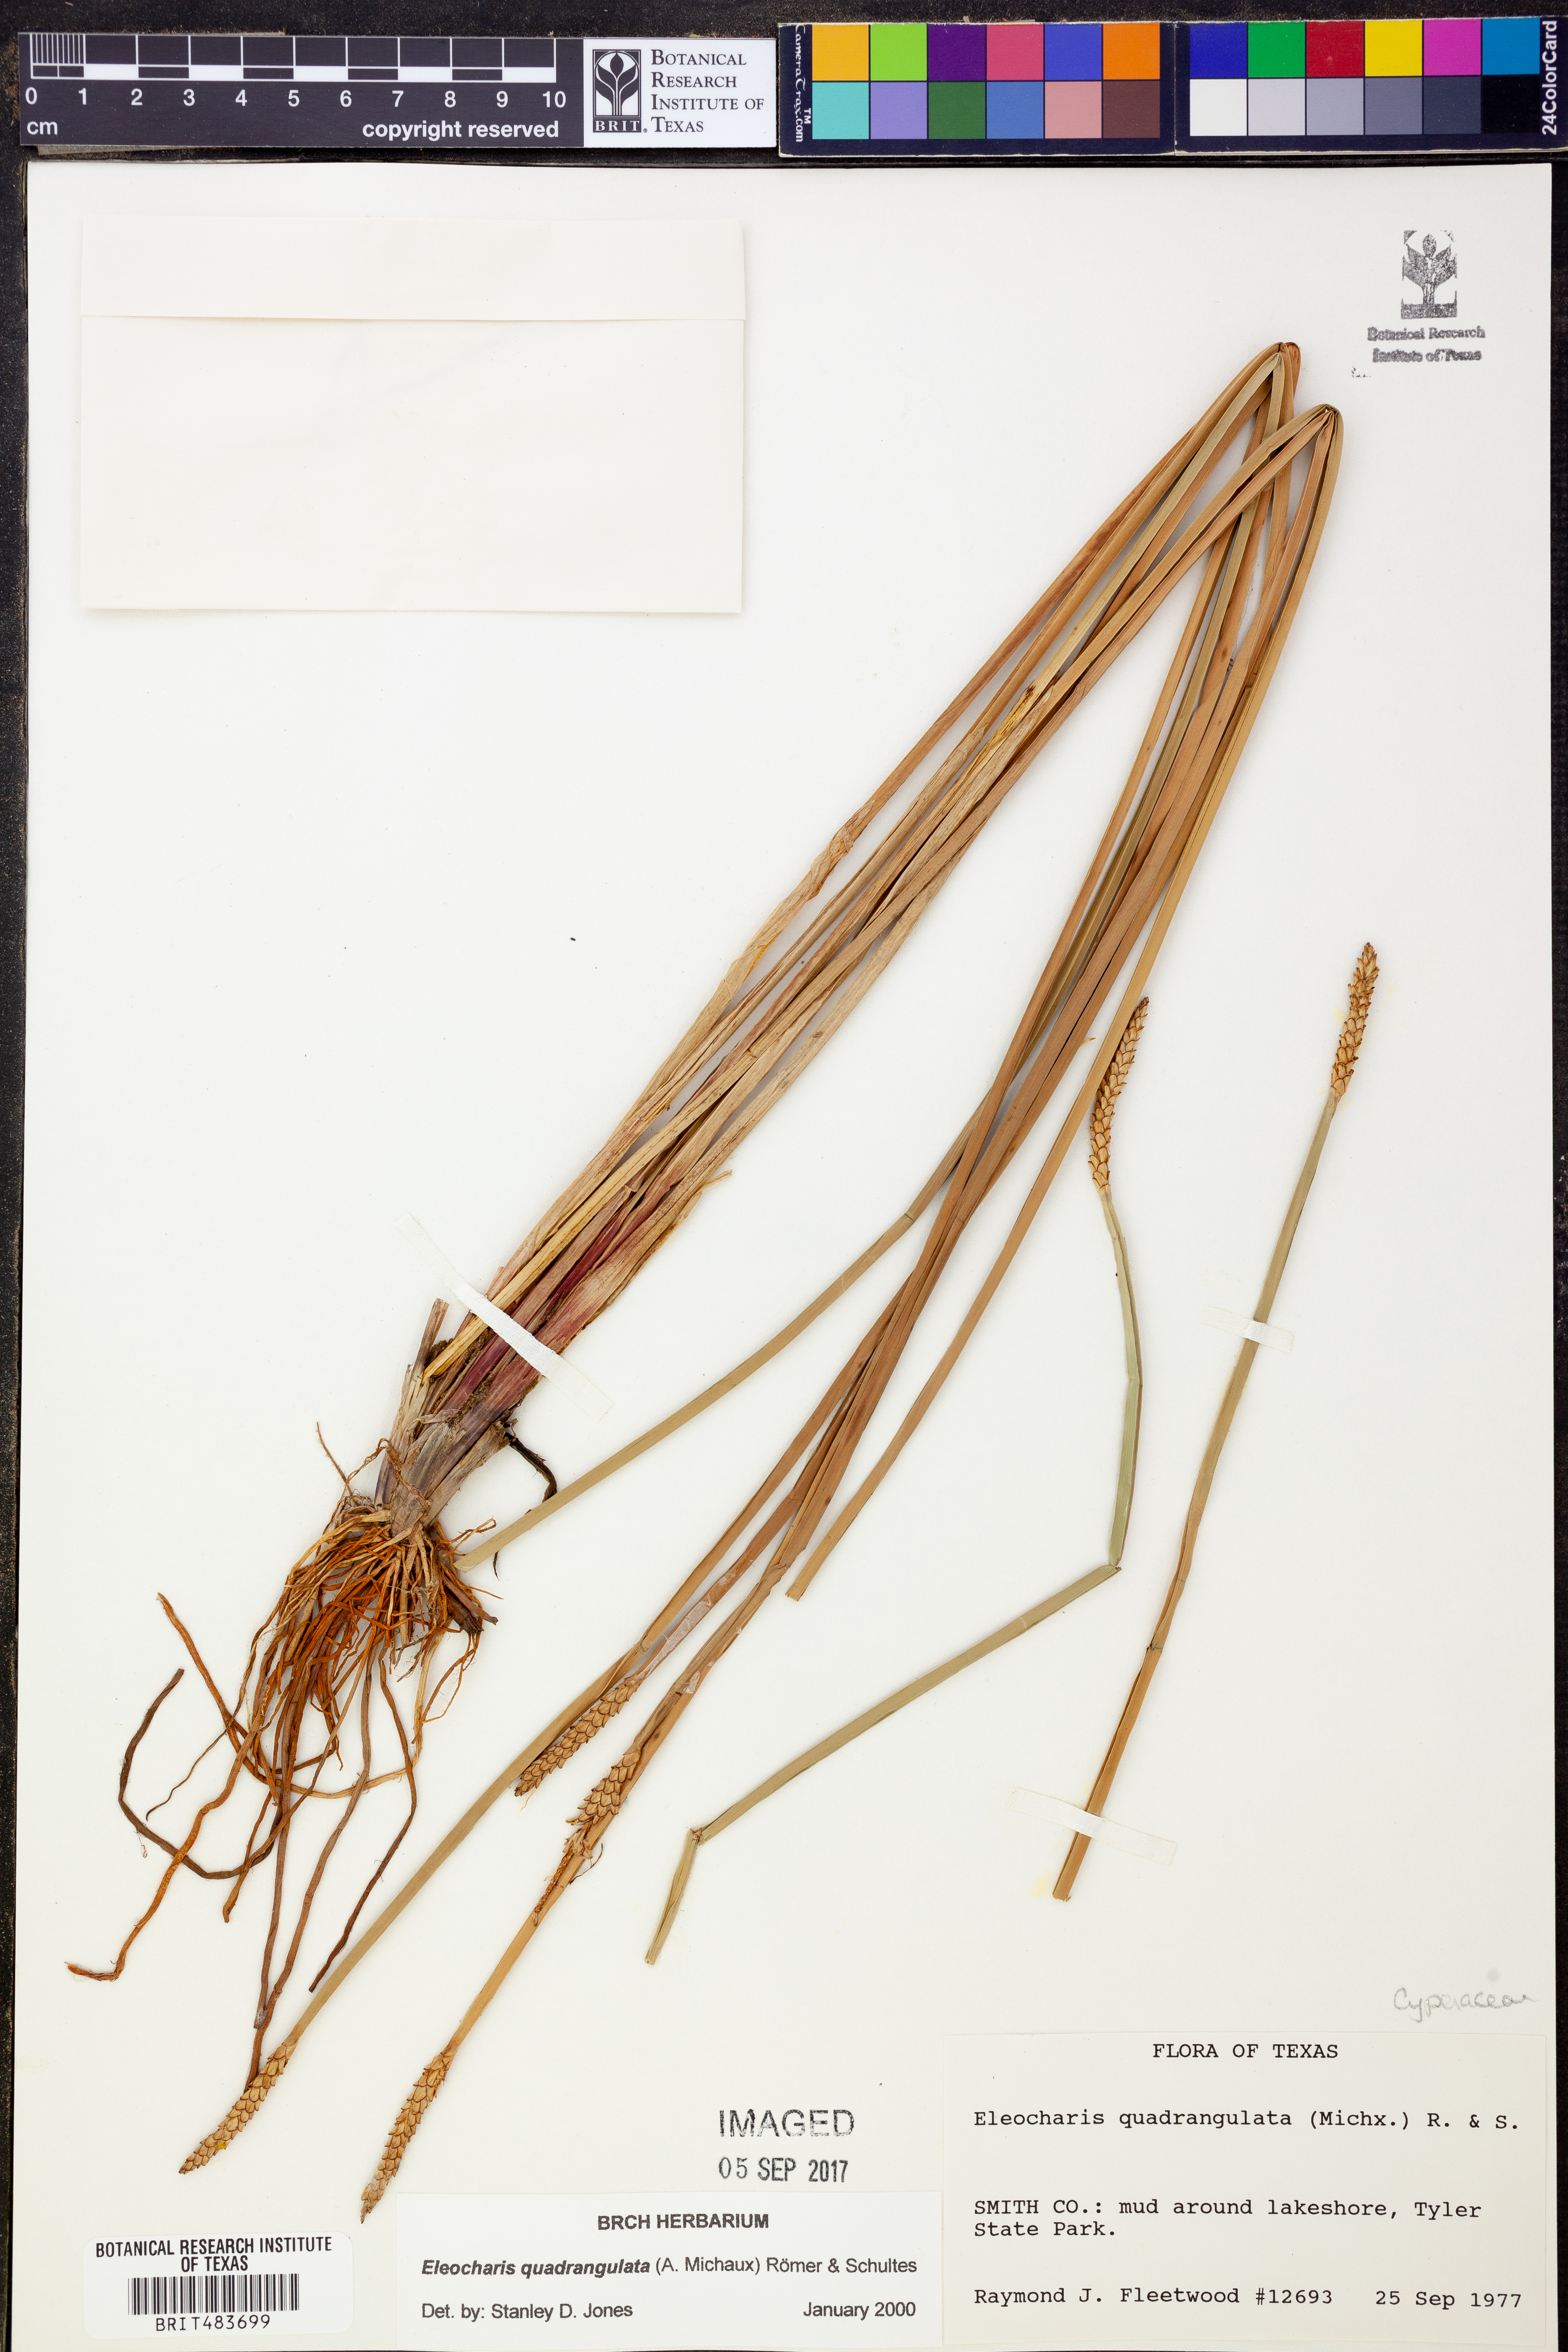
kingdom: Plantae
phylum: Tracheophyta
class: Liliopsida
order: Poales
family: Cyperaceae
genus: Eleocharis
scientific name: Eleocharis quadrangulata
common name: Square-stem spike-rush
